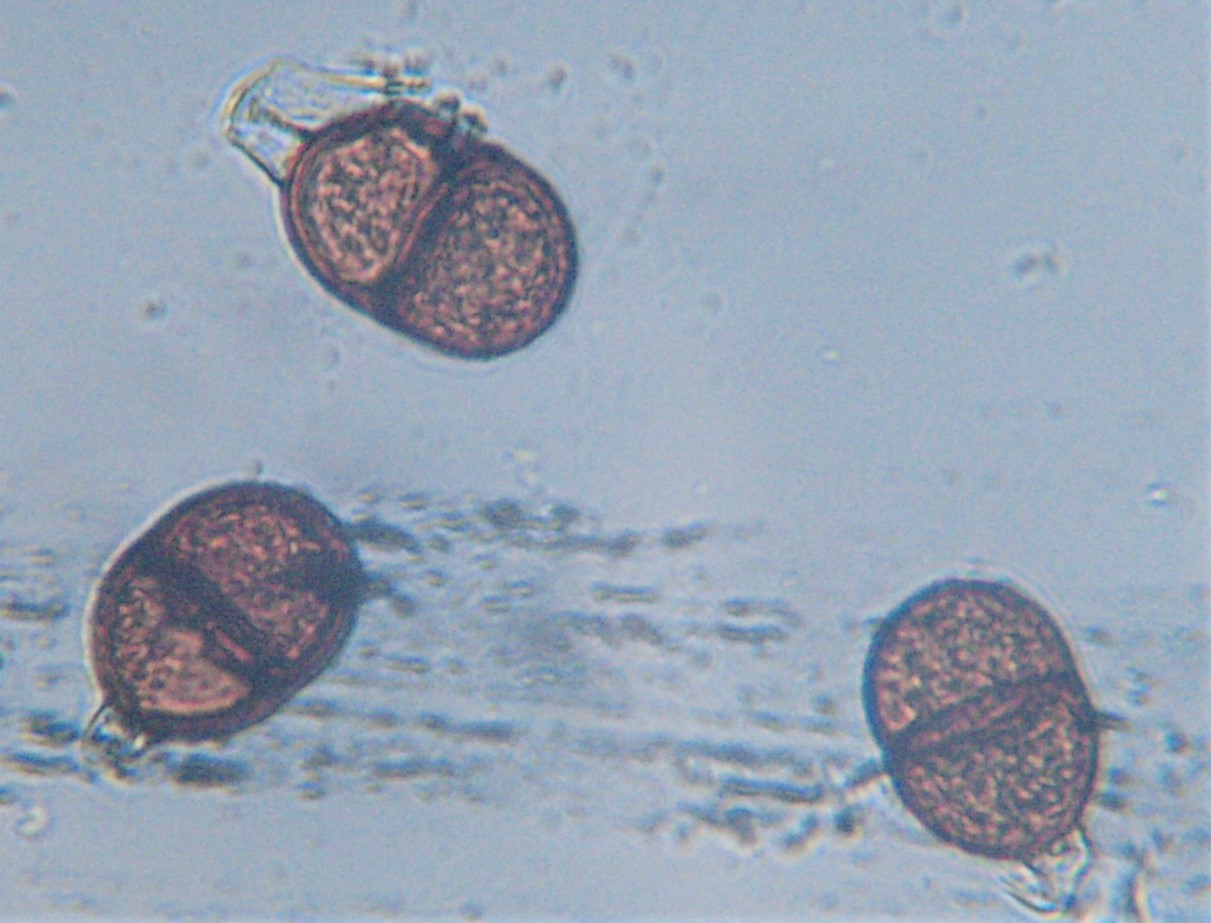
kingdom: Fungi
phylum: Basidiomycota
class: Pucciniomycetes
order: Pucciniales
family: Pucciniaceae
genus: Puccinia
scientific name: Puccinia calcitrapae
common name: Rust fungus
